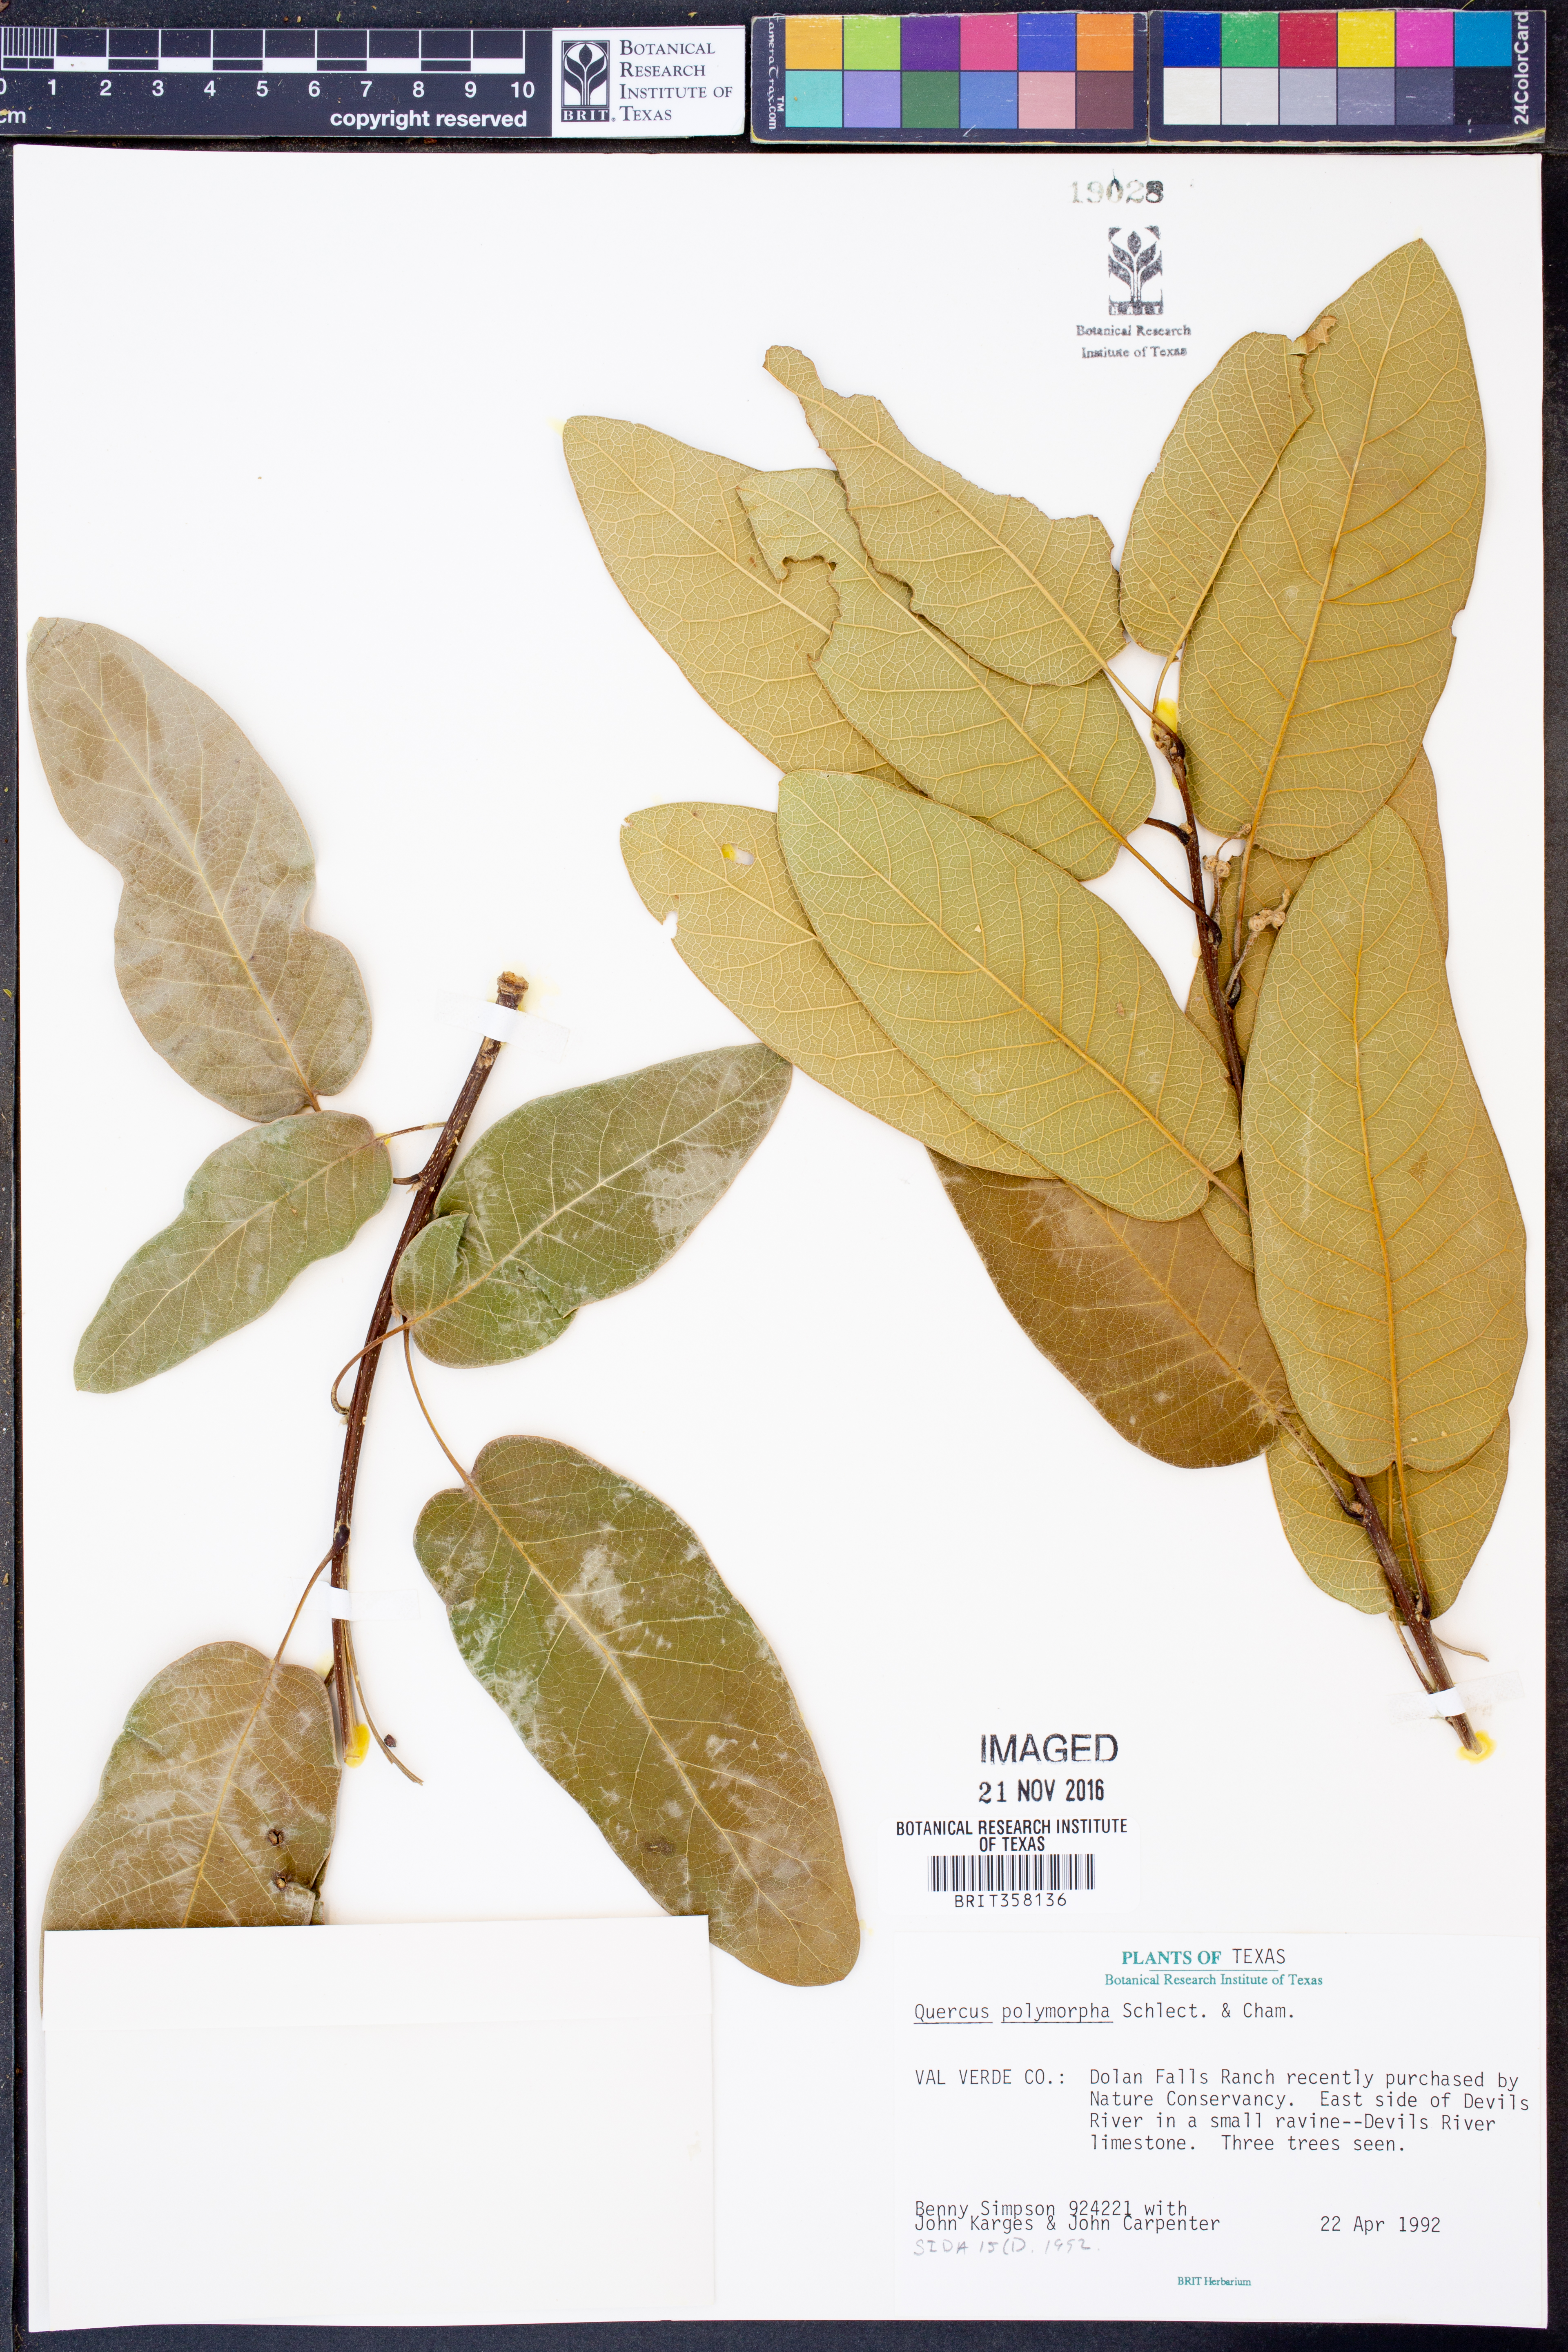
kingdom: Plantae
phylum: Tracheophyta
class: Magnoliopsida
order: Fagales
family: Fagaceae
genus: Quercus
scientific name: Quercus polymorpha
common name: Mexican white oak
